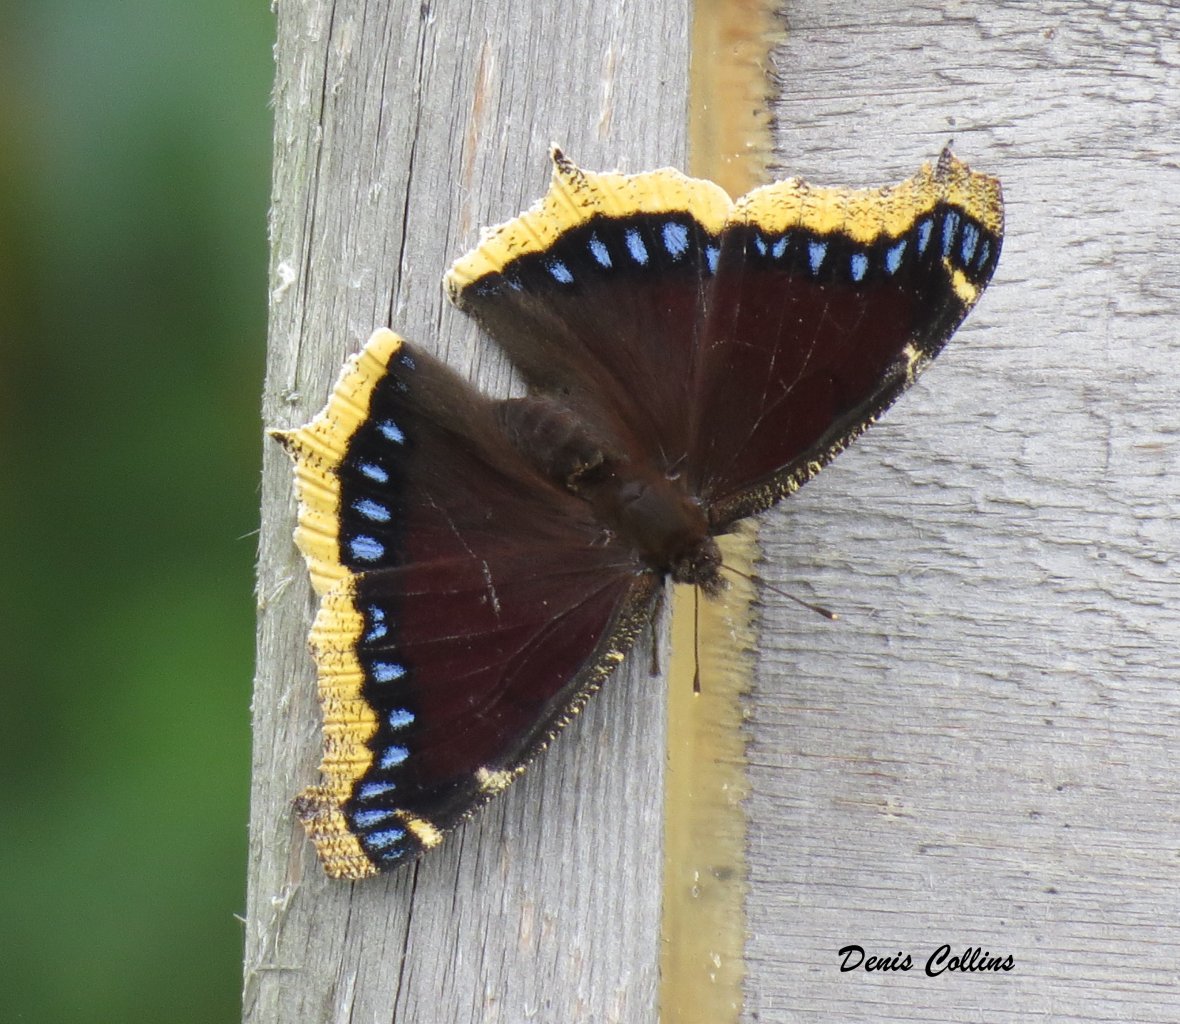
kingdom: Animalia
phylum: Arthropoda
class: Insecta
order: Lepidoptera
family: Nymphalidae
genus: Nymphalis
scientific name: Nymphalis antiopa
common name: Mourning Cloak
